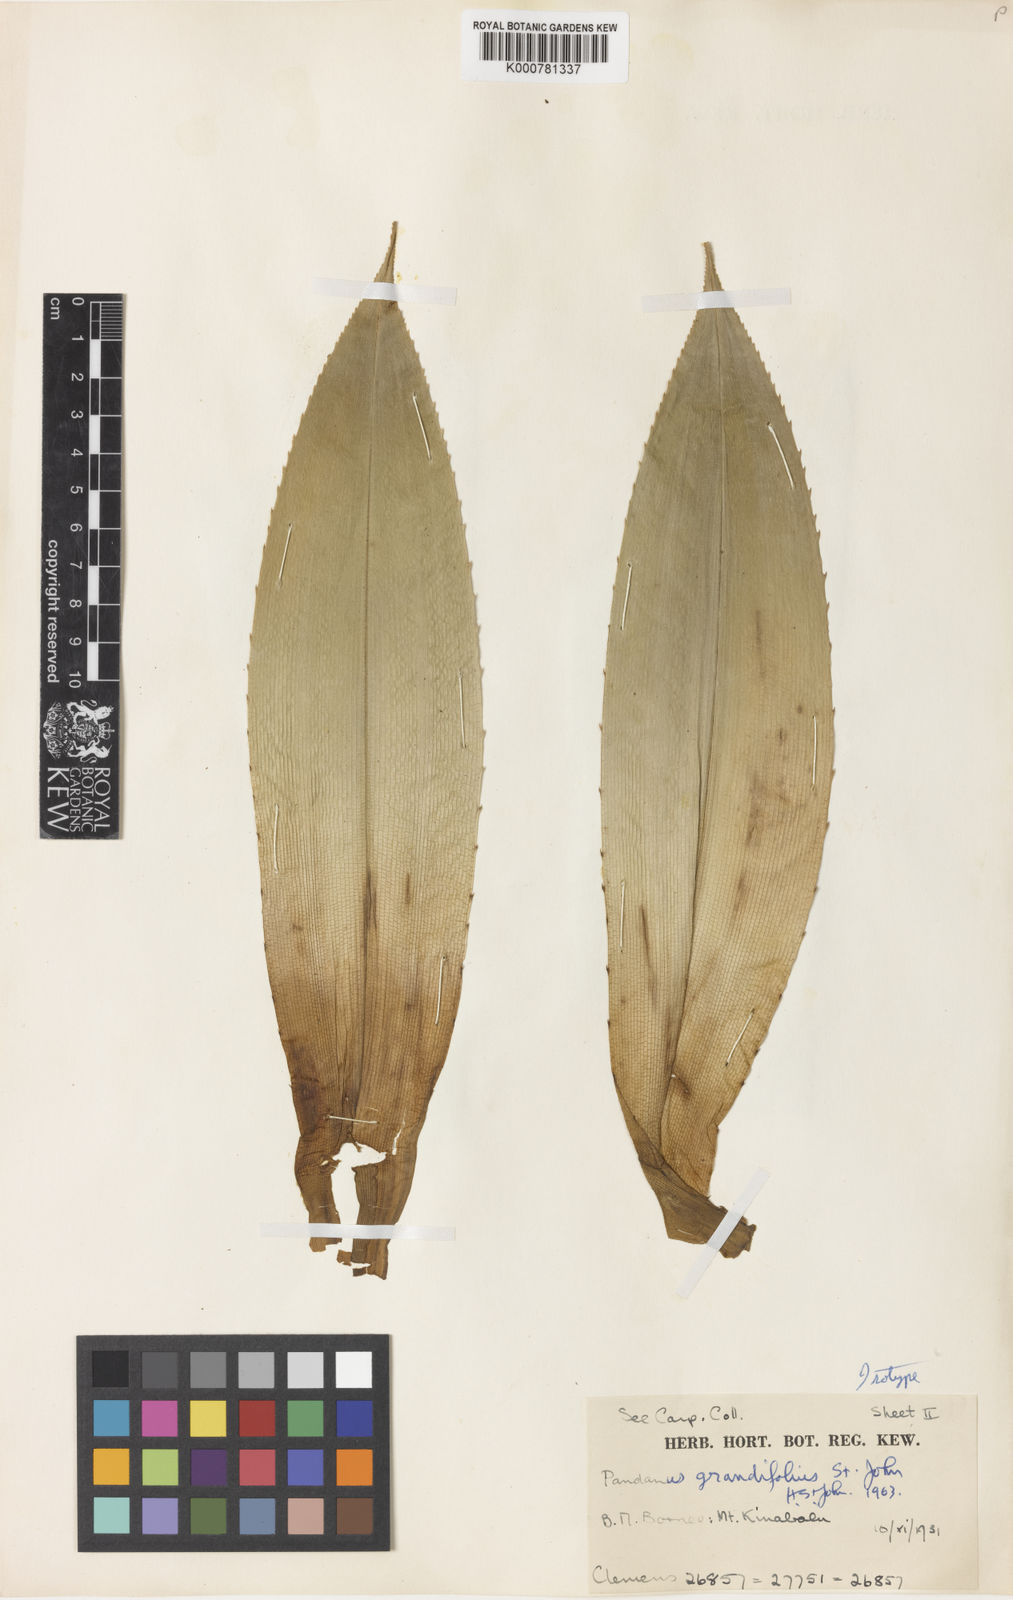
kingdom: Plantae
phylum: Tracheophyta
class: Liliopsida
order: Pandanales
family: Pandanaceae
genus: Pandanus
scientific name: Pandanus
